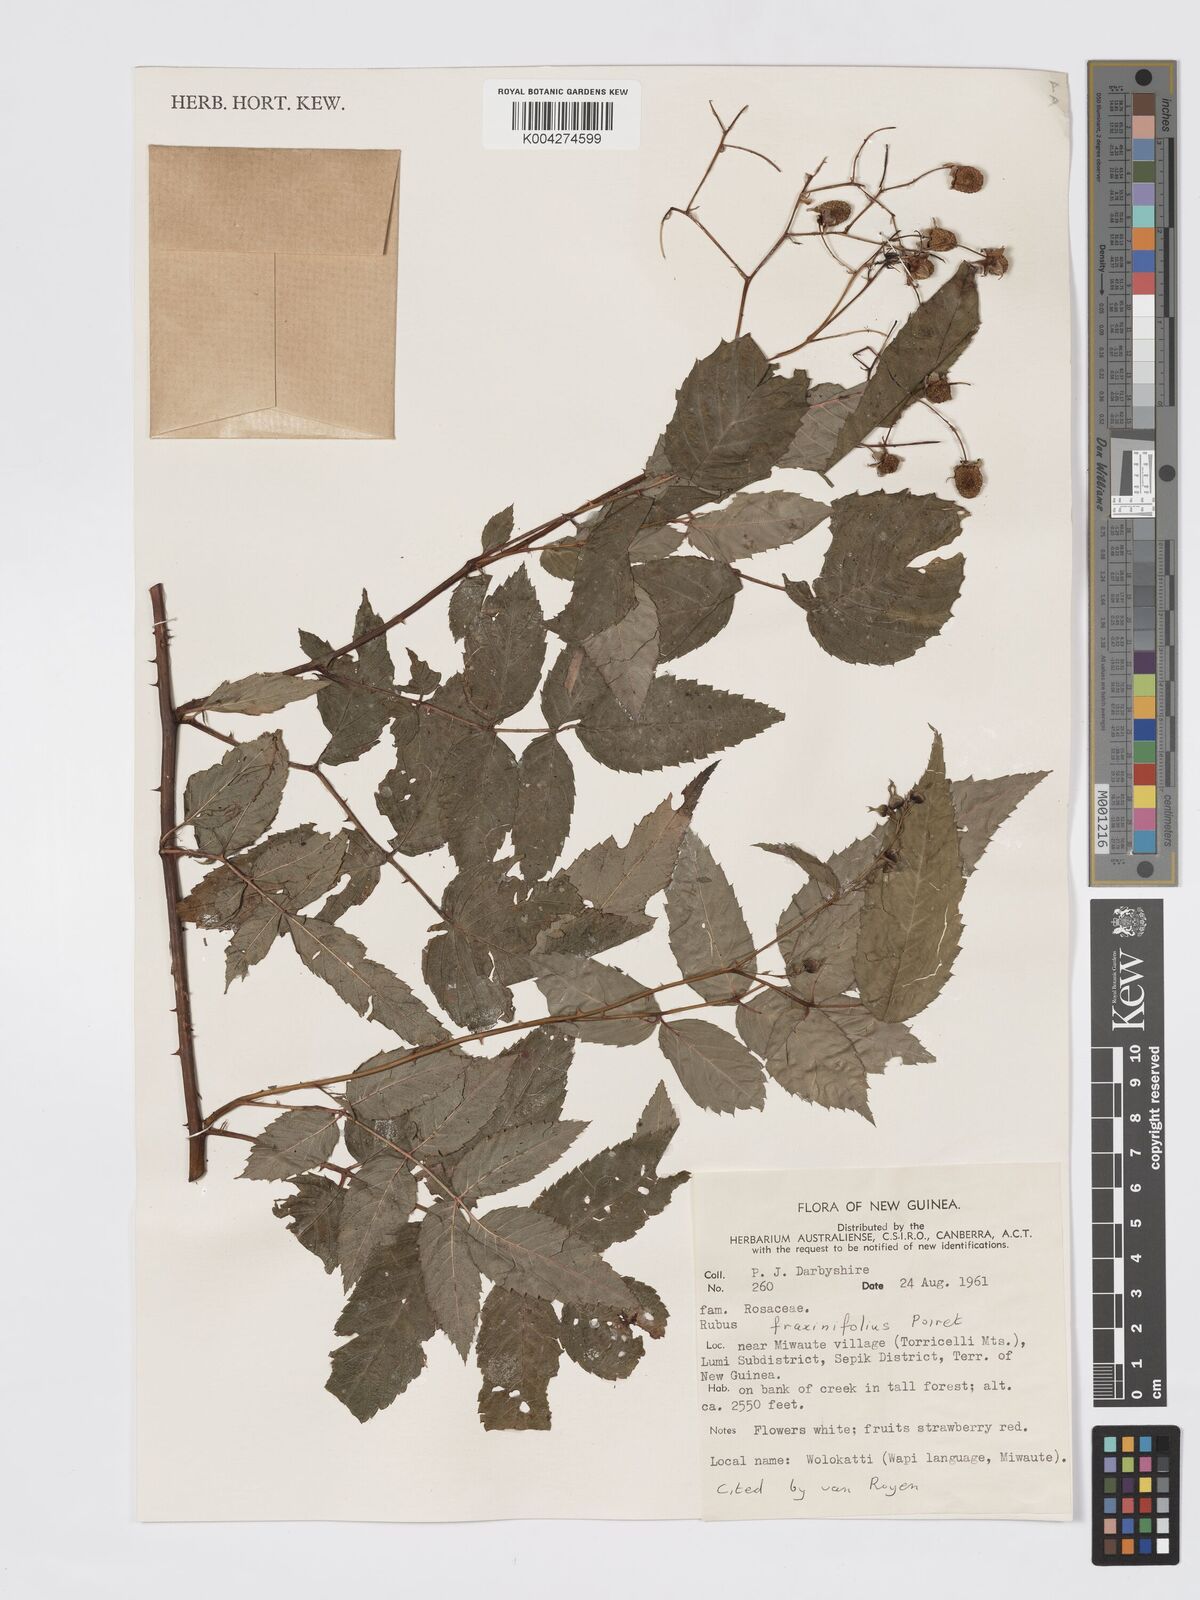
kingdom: Plantae
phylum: Tracheophyta
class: Magnoliopsida
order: Rosales
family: Rosaceae
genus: Rubus
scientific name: Rubus fraxinifolius
